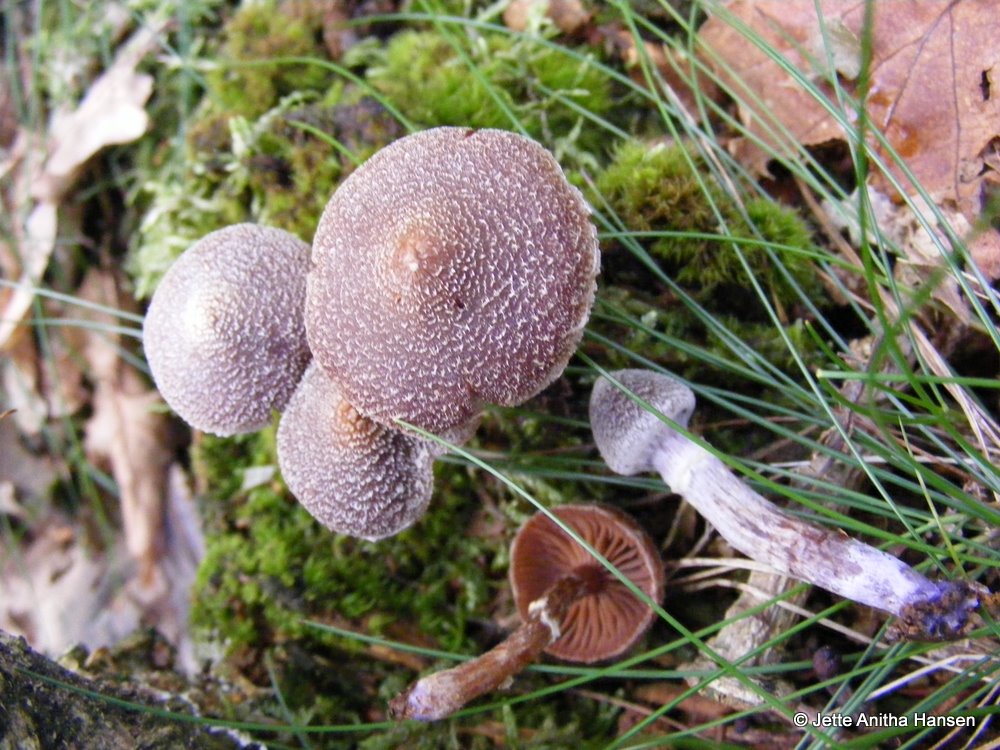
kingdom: Fungi
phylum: Basidiomycota
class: Agaricomycetes
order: Agaricales
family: Cortinariaceae
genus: Cortinarius
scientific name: Cortinarius
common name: pelargonie-slørhat
